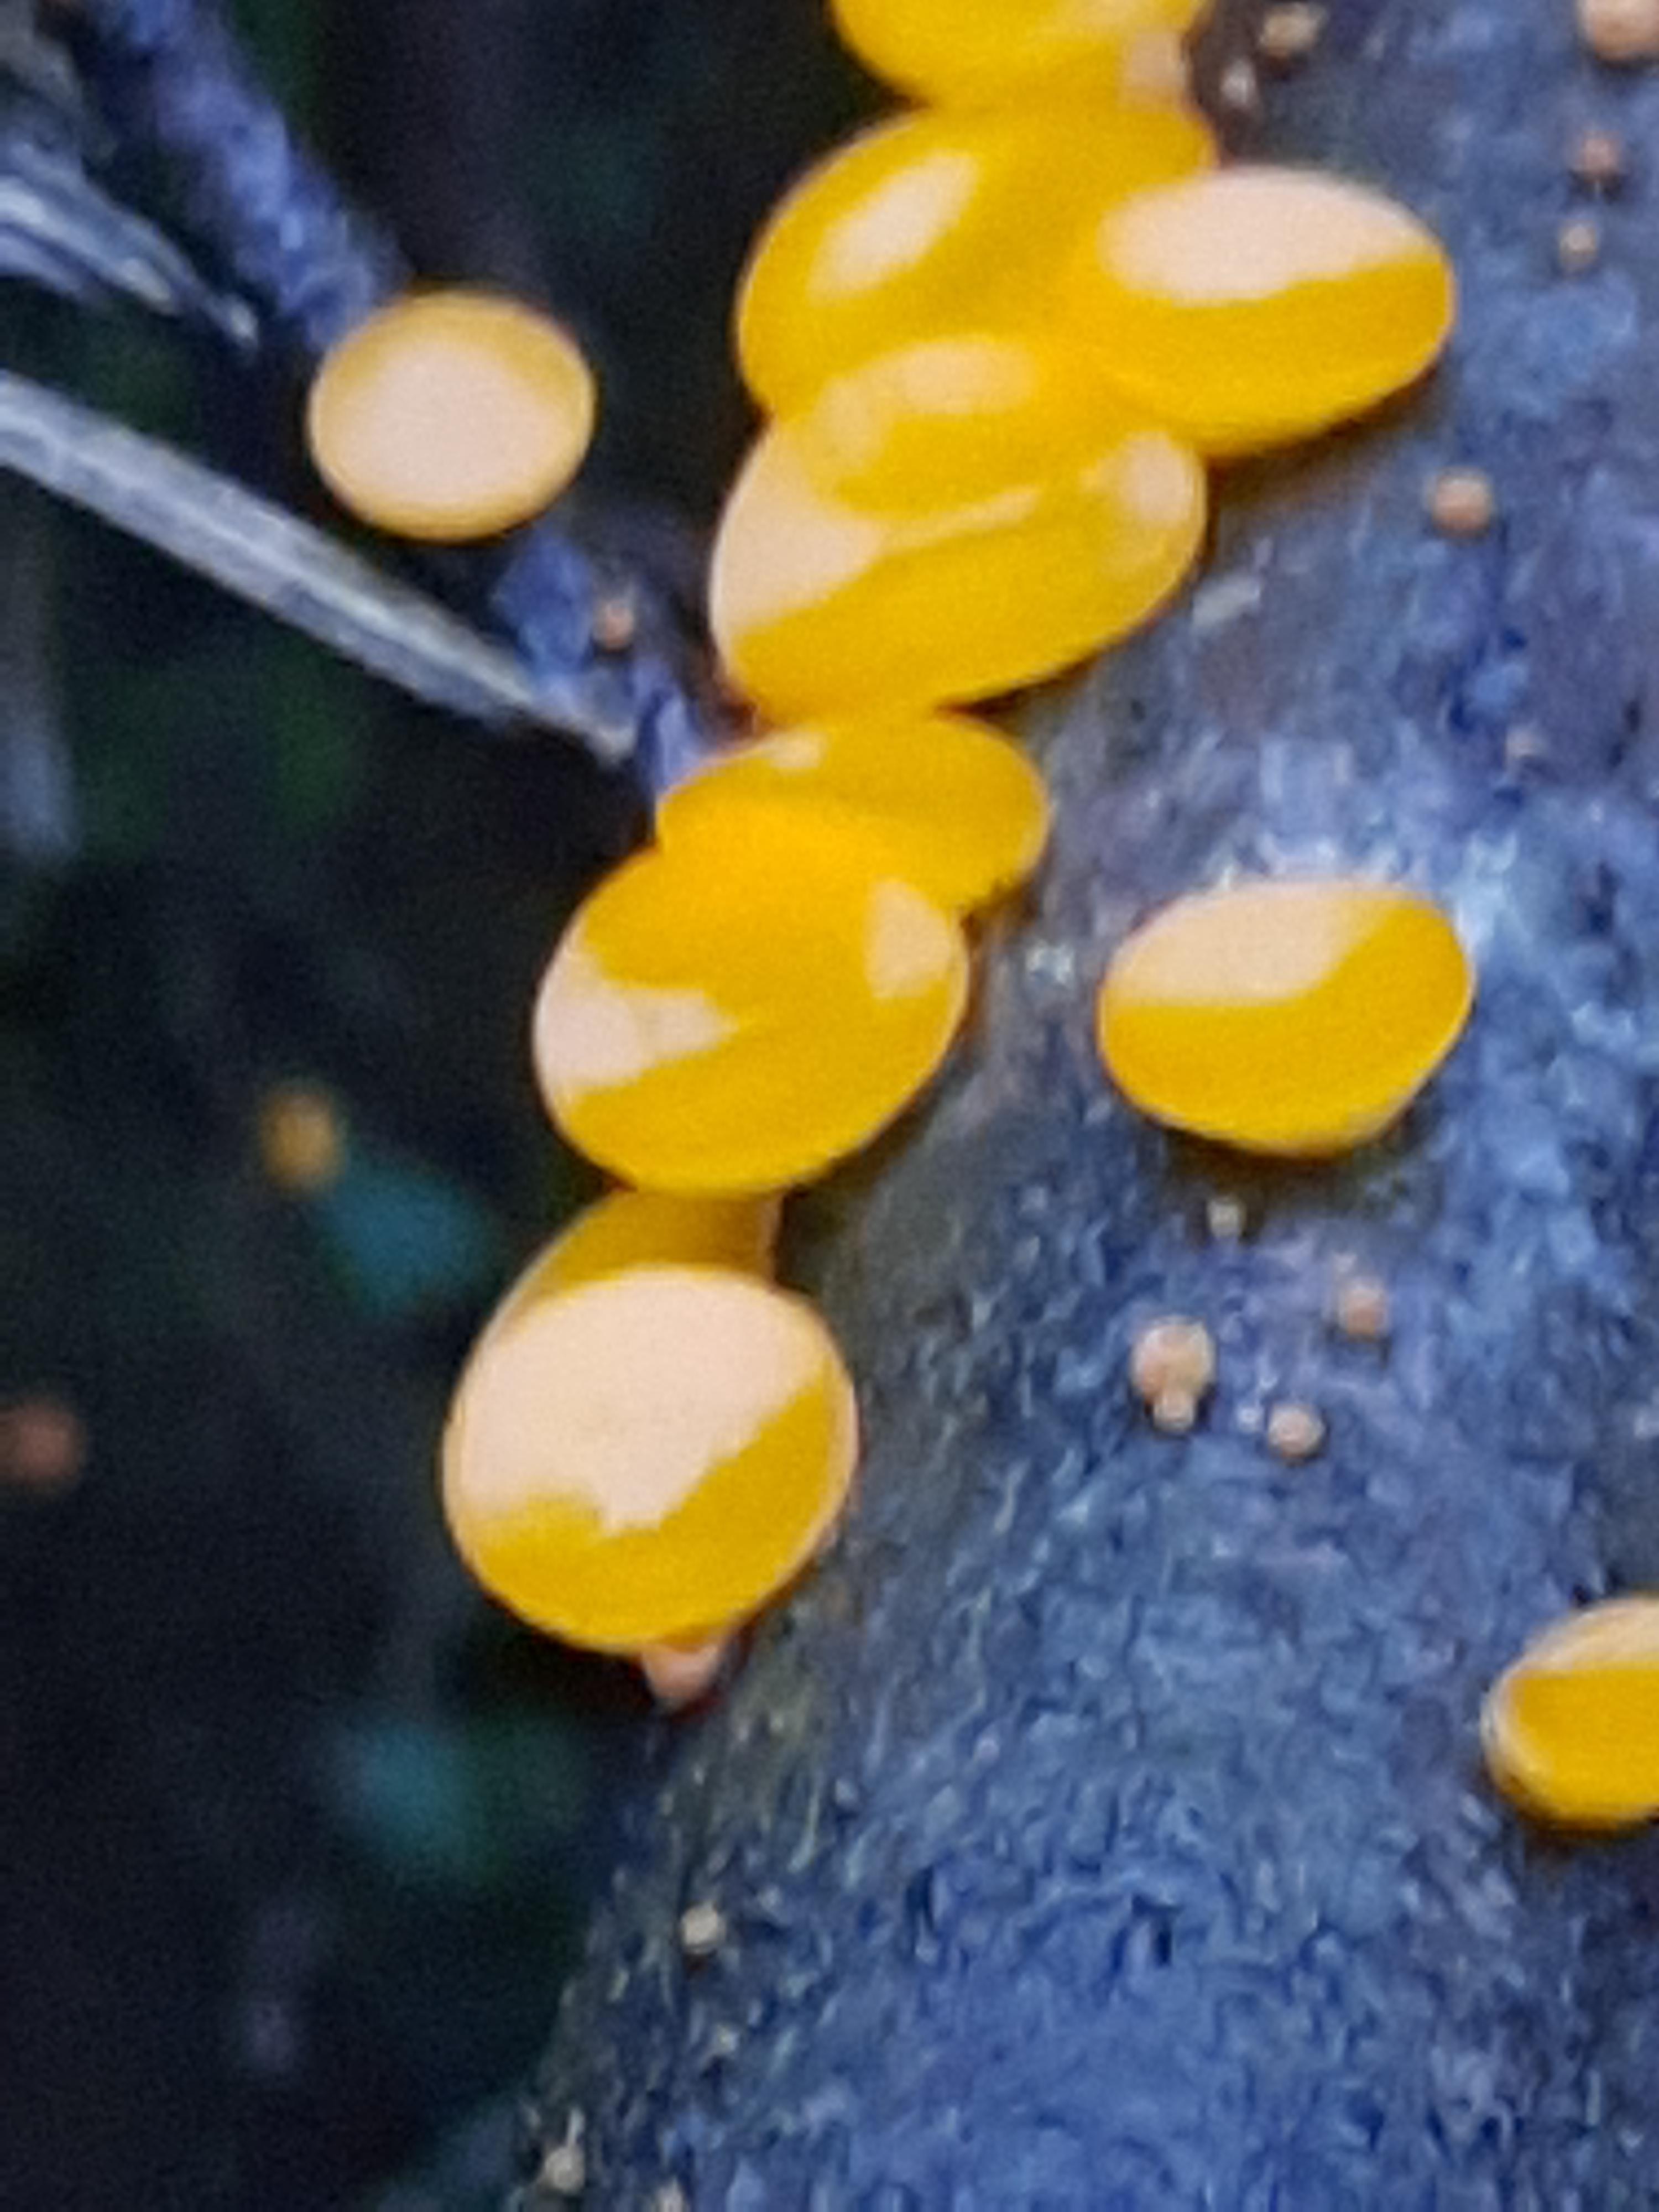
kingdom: Fungi
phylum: Ascomycota
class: Pezizomycetes
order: Pezizales
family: Sarcoscyphaceae
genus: Pithya
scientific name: Pithya vulgaris
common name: stor dukatbæger
